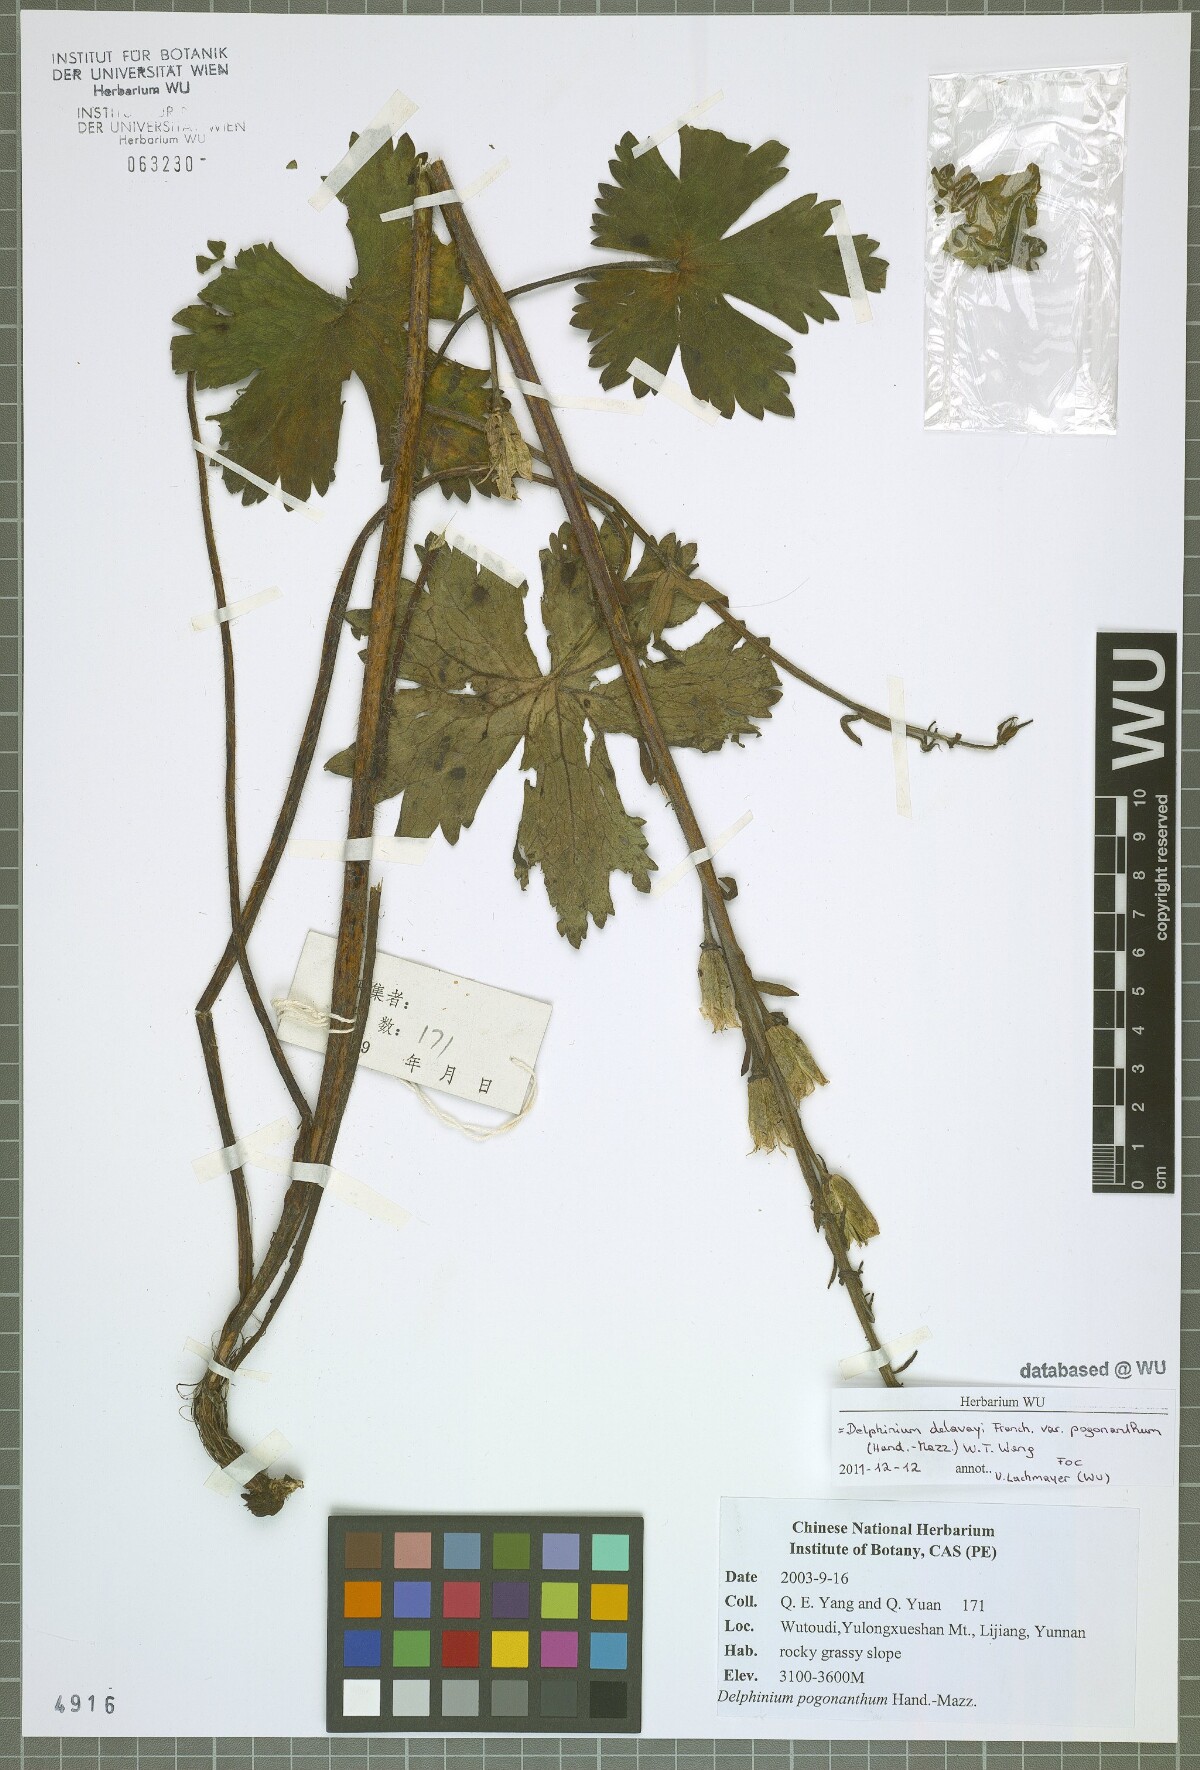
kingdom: Plantae
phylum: Tracheophyta
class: Magnoliopsida
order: Ranunculales
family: Ranunculaceae
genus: Delphinium
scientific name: Delphinium delavayi
